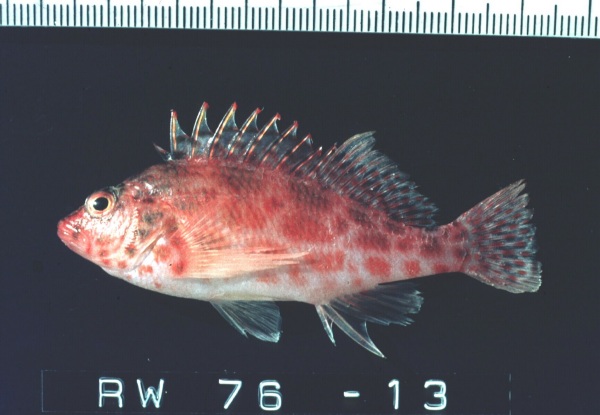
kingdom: Animalia
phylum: Chordata
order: Perciformes
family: Cirrhitidae
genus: Cirrhitichthys
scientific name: Cirrhitichthys oxycephalus
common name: Spotted hawkfish
